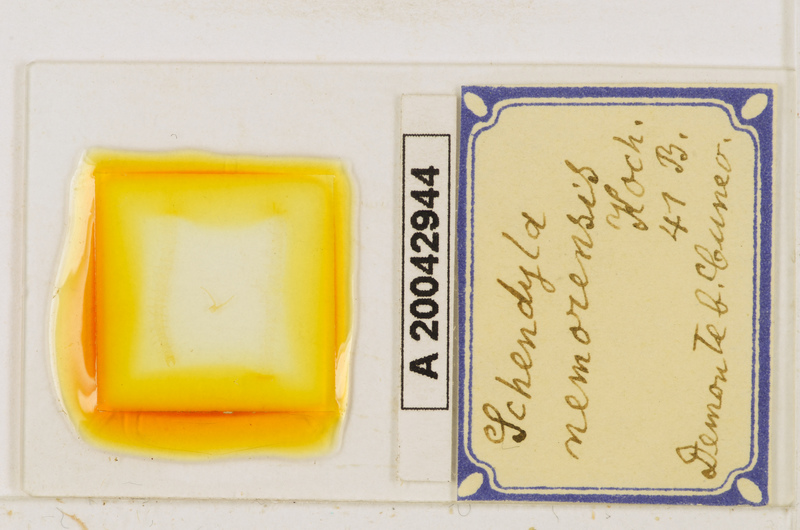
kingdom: Animalia
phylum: Arthropoda
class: Chilopoda
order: Geophilomorpha
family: Schendylidae
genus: Schendyla
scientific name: Schendyla nemorensis
